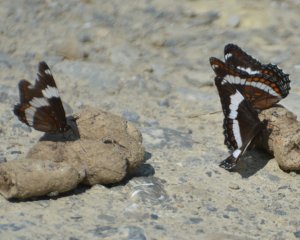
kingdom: Animalia
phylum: Arthropoda
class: Insecta
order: Lepidoptera
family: Nymphalidae
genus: Limenitis
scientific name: Limenitis arthemis
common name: Red-spotted Admiral
